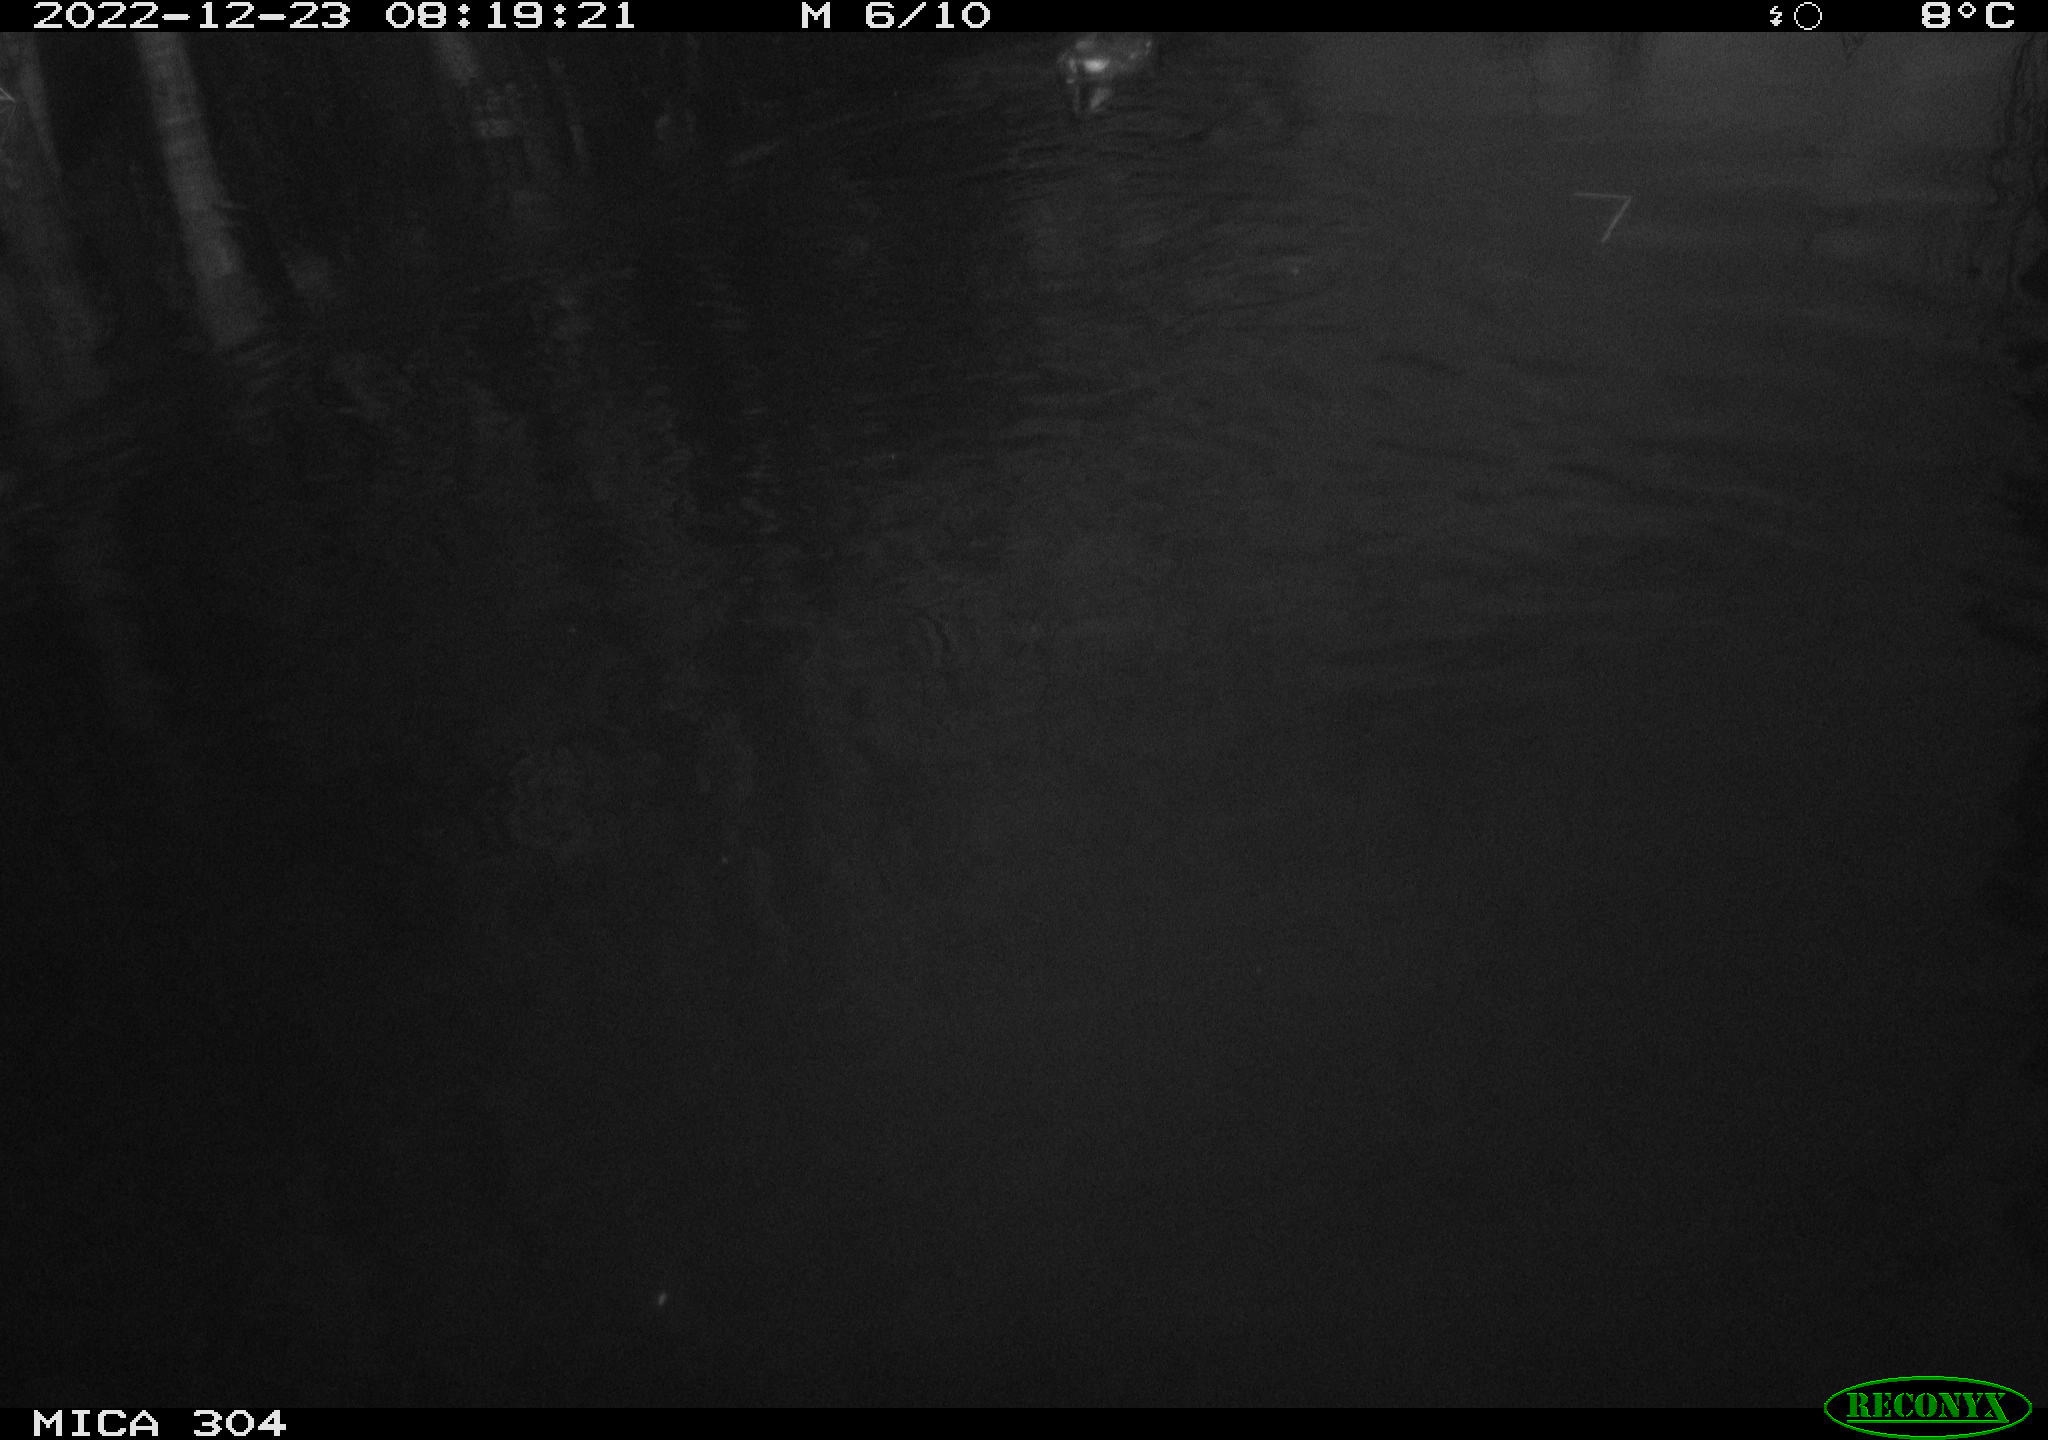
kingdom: Animalia
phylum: Chordata
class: Aves
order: Gruiformes
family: Rallidae
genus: Gallinula
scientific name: Gallinula chloropus
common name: Common moorhen
